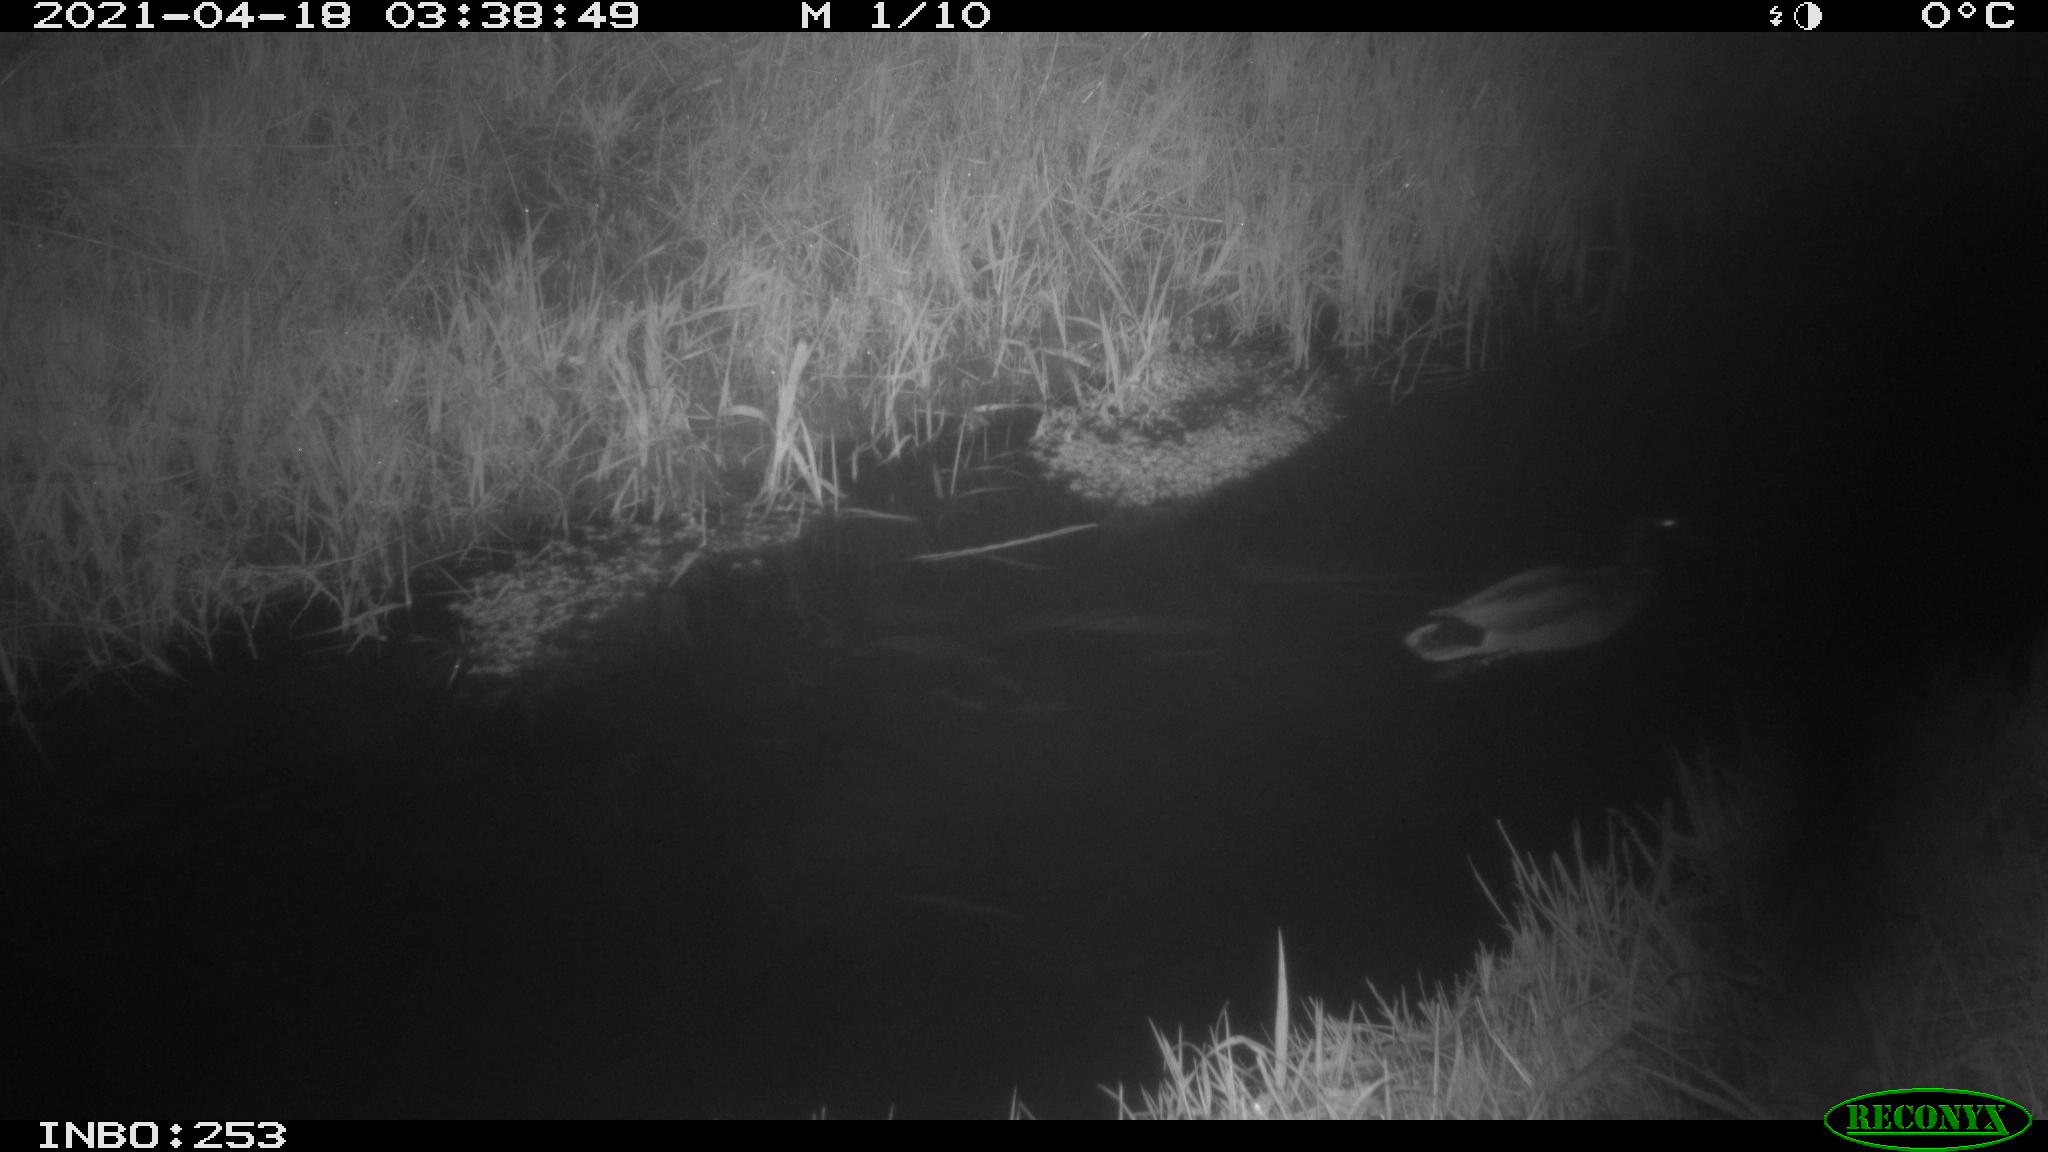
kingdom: Animalia
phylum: Chordata
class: Aves
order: Anseriformes
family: Anatidae
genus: Anas
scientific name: Anas platyrhynchos
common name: Mallard
